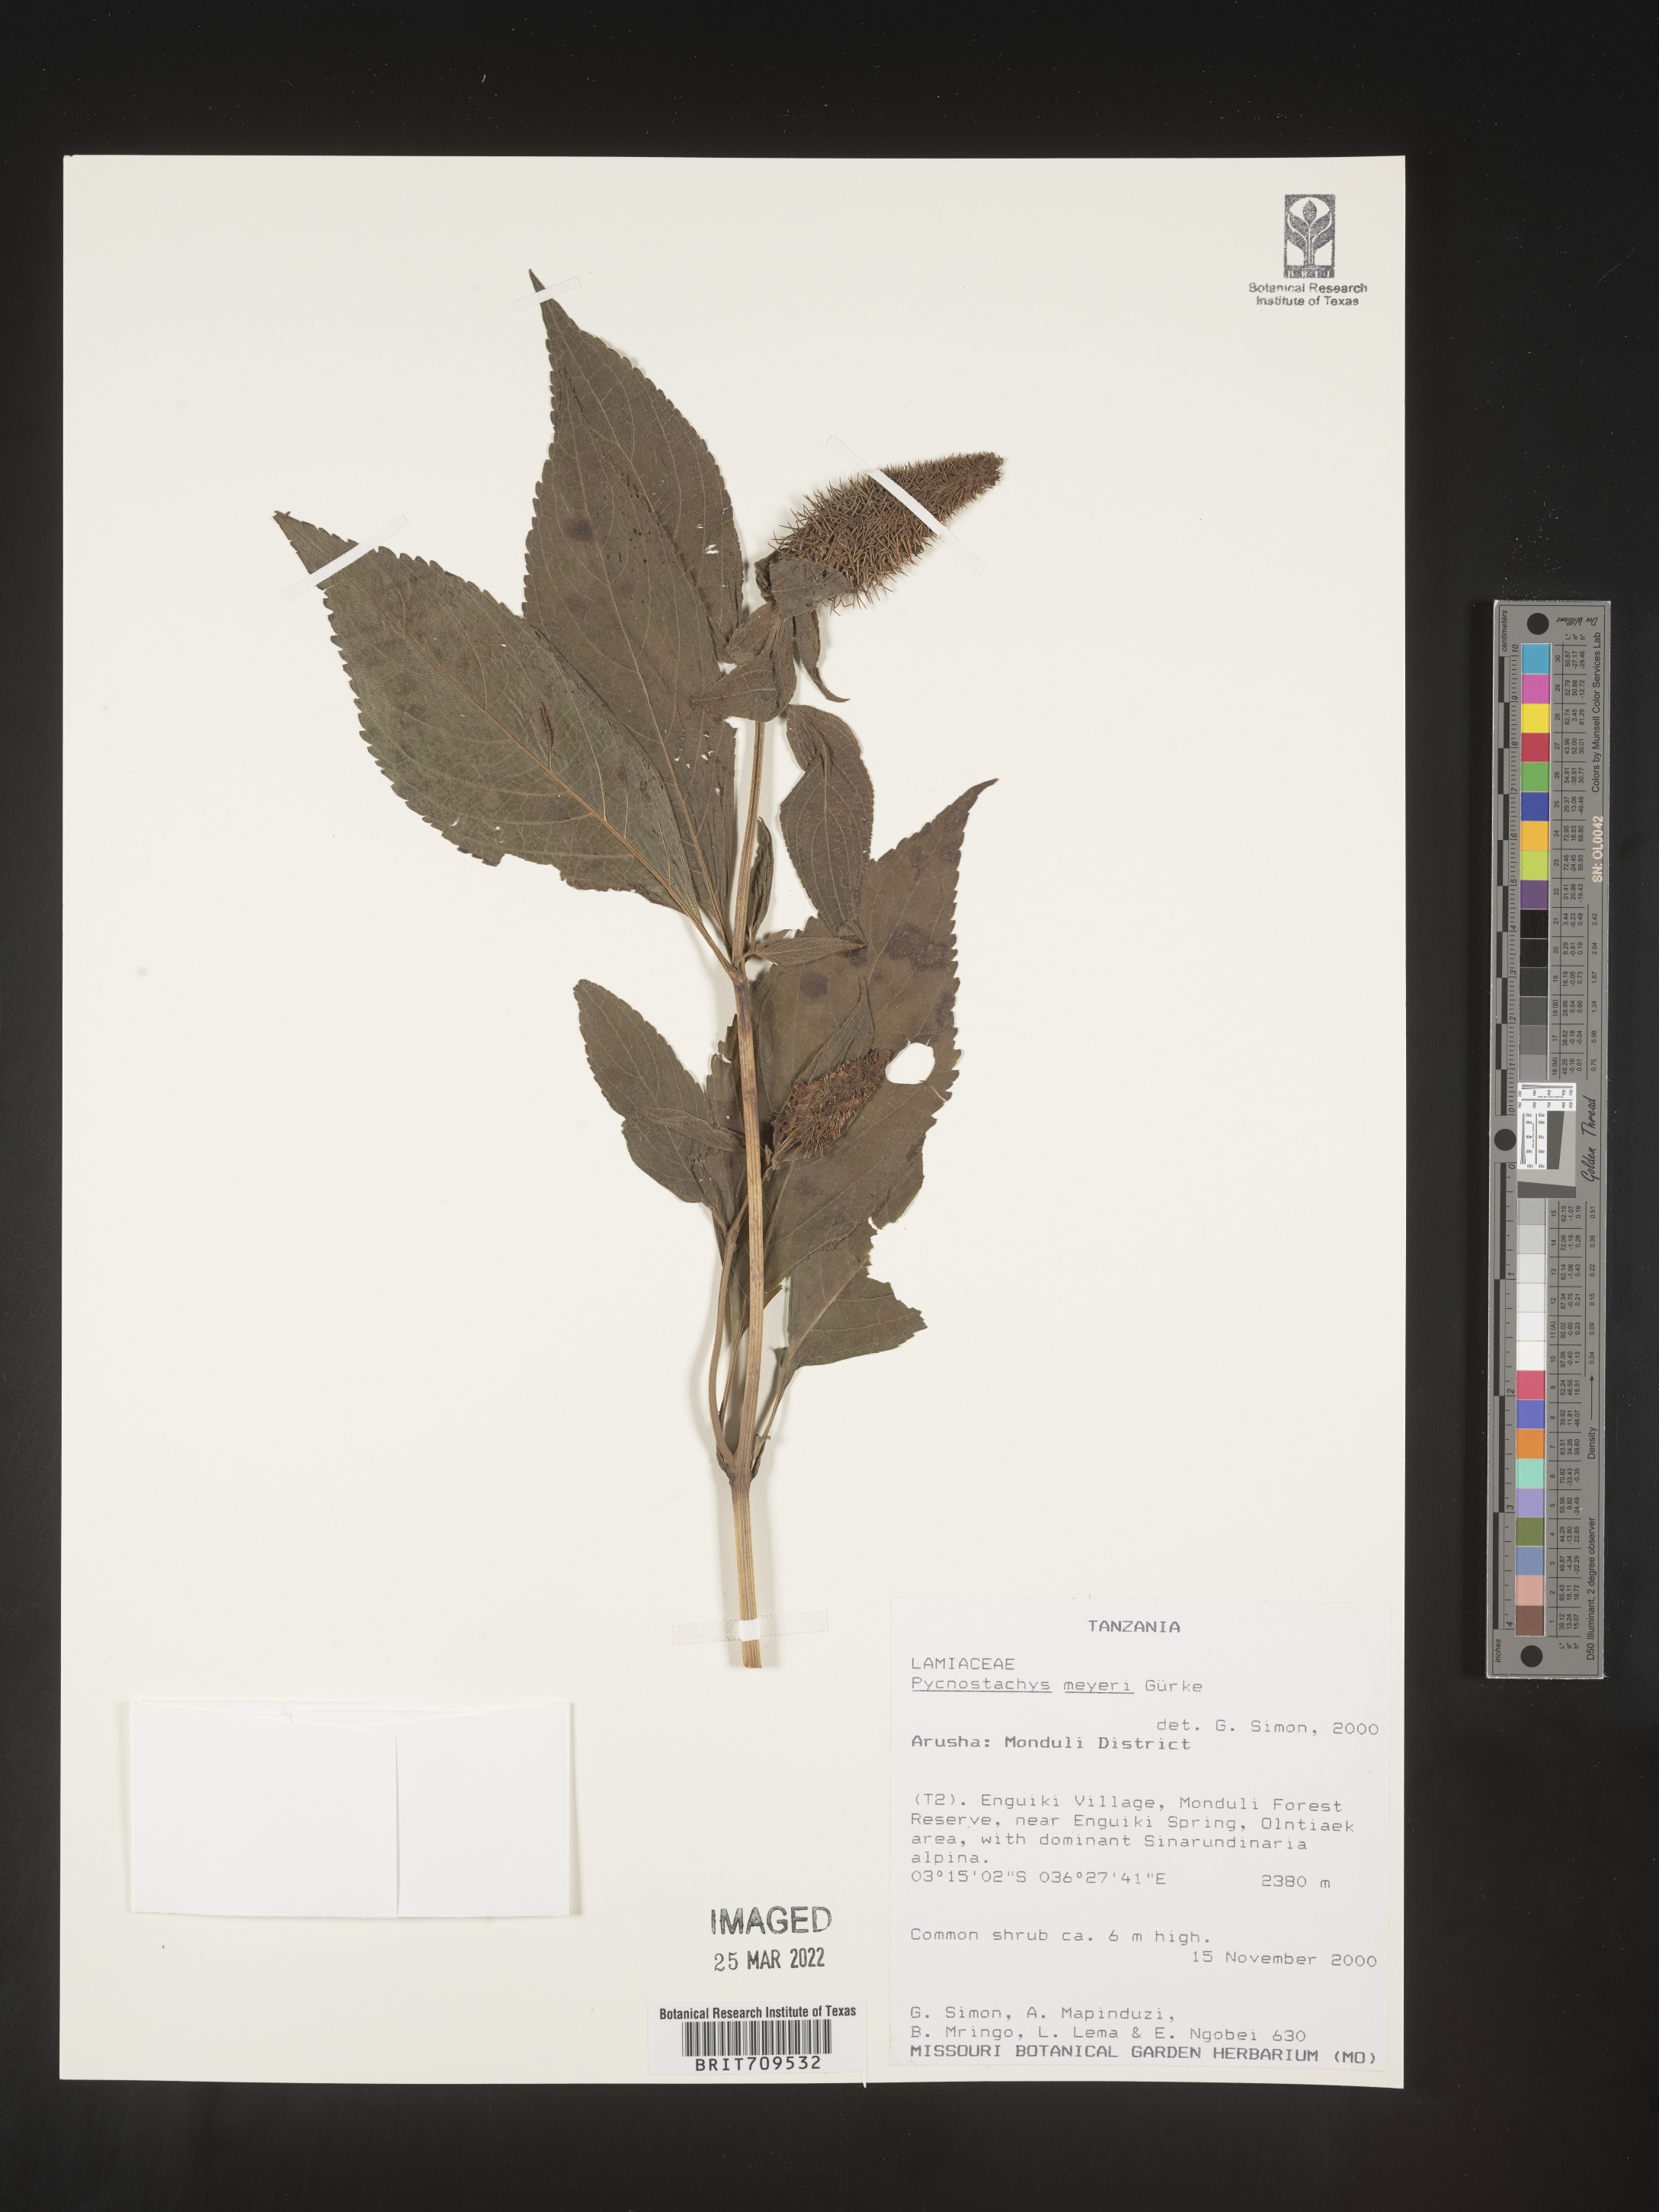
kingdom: Plantae
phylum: Tracheophyta
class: Magnoliopsida
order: Lamiales
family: Lamiaceae
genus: Coleus
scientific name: Coleus
